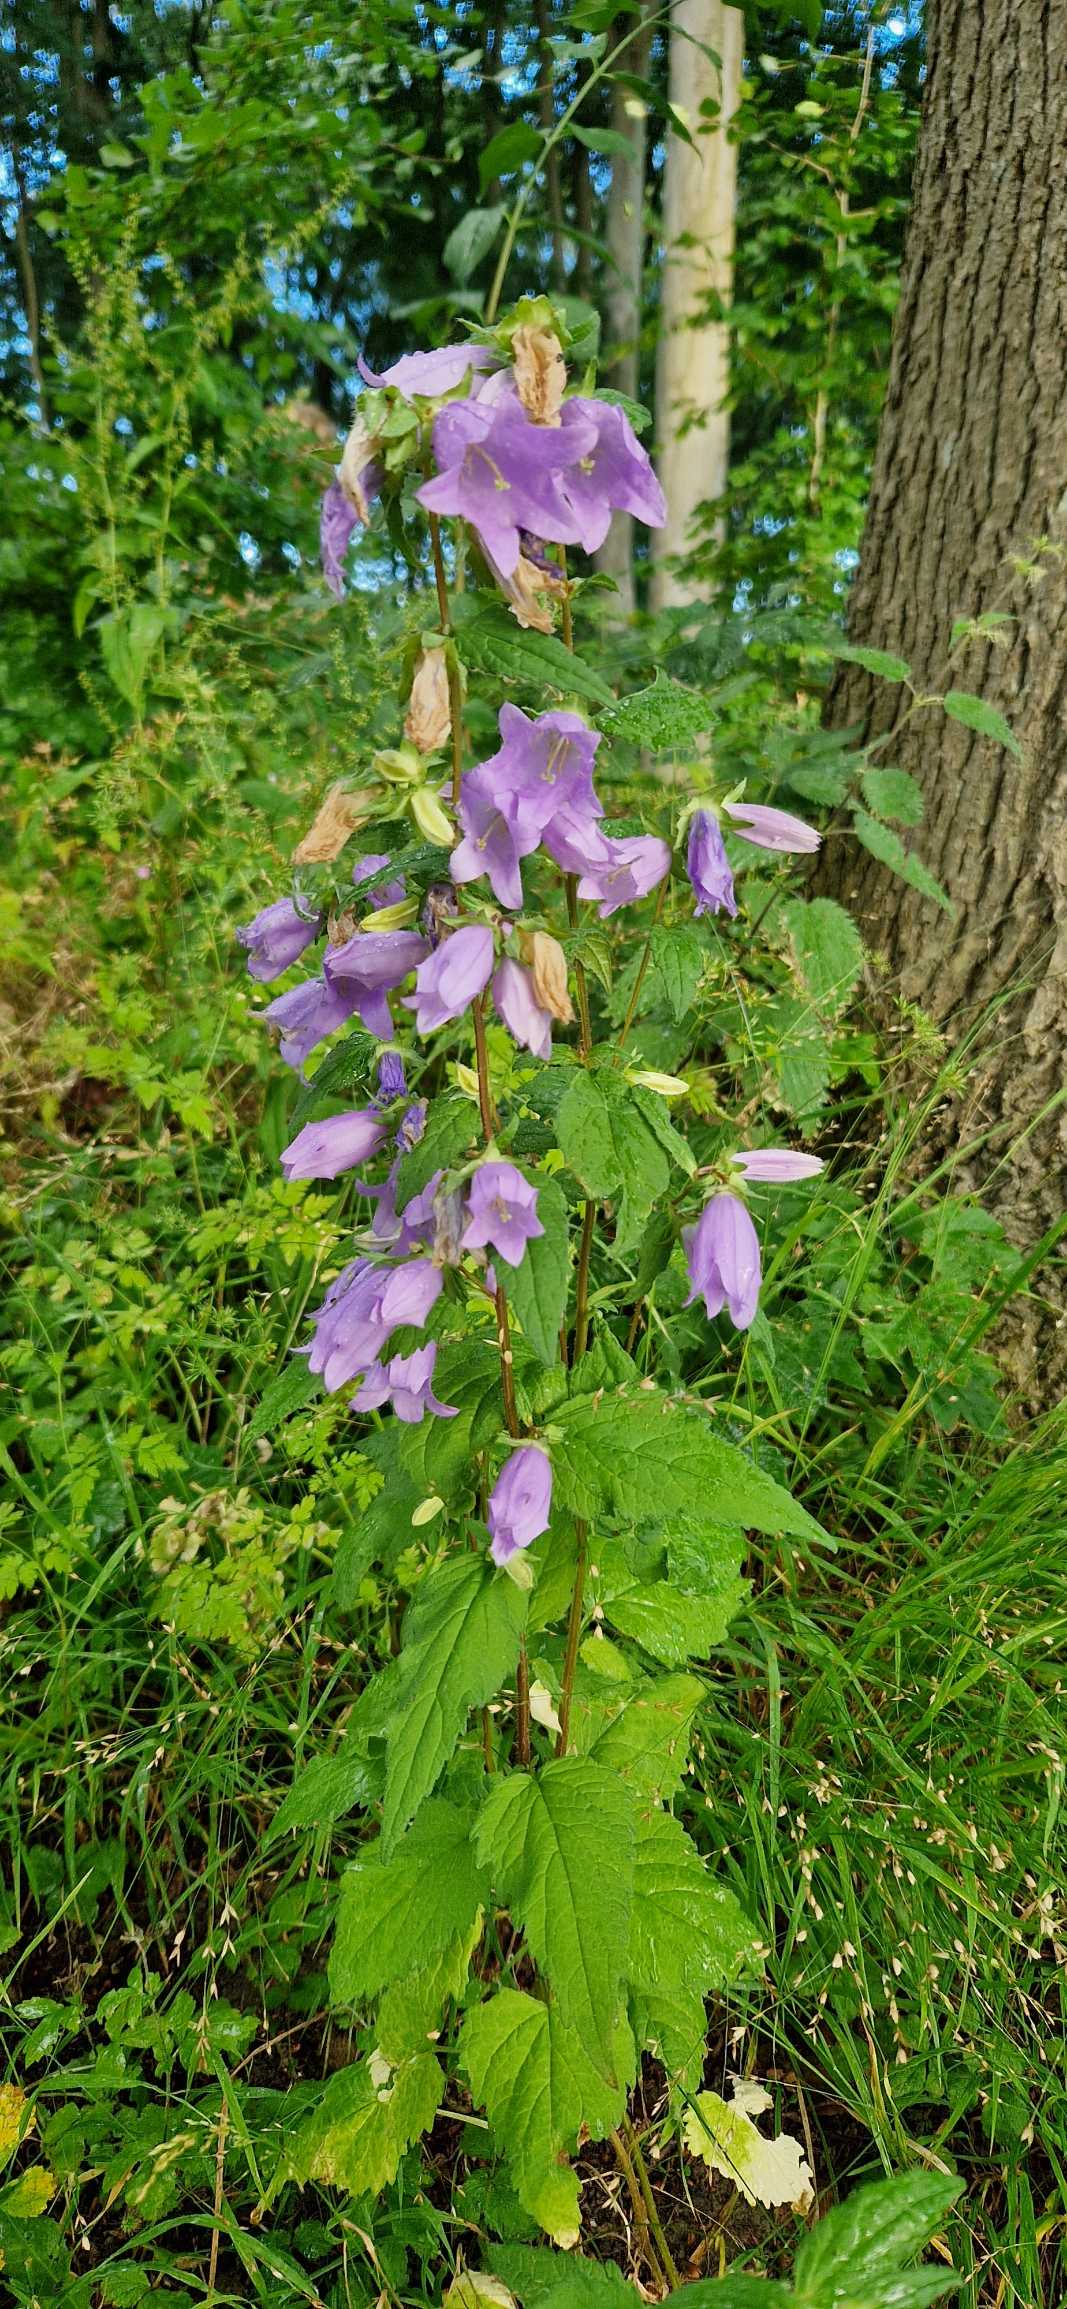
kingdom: Plantae
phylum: Tracheophyta
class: Magnoliopsida
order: Asterales
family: Campanulaceae
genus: Campanula
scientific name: Campanula trachelium
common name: Nælde-klokke
